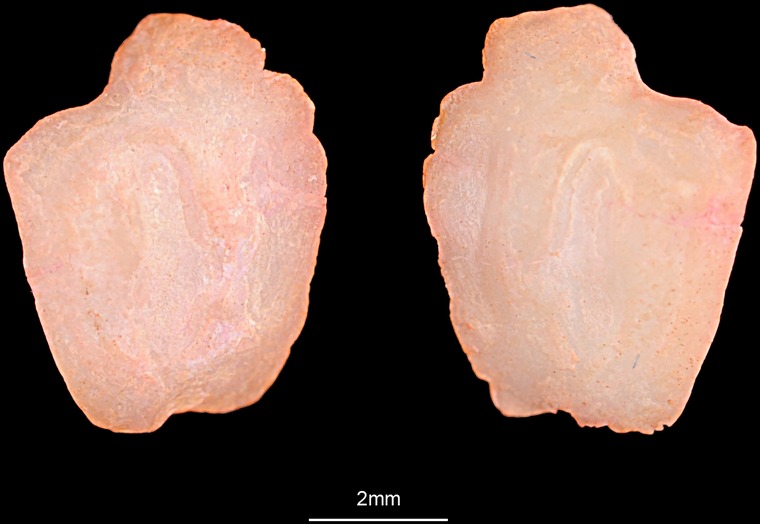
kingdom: Animalia
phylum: Chordata
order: Perciformes
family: Gobiidae
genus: Gobius
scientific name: Gobius niger
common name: Black goby
